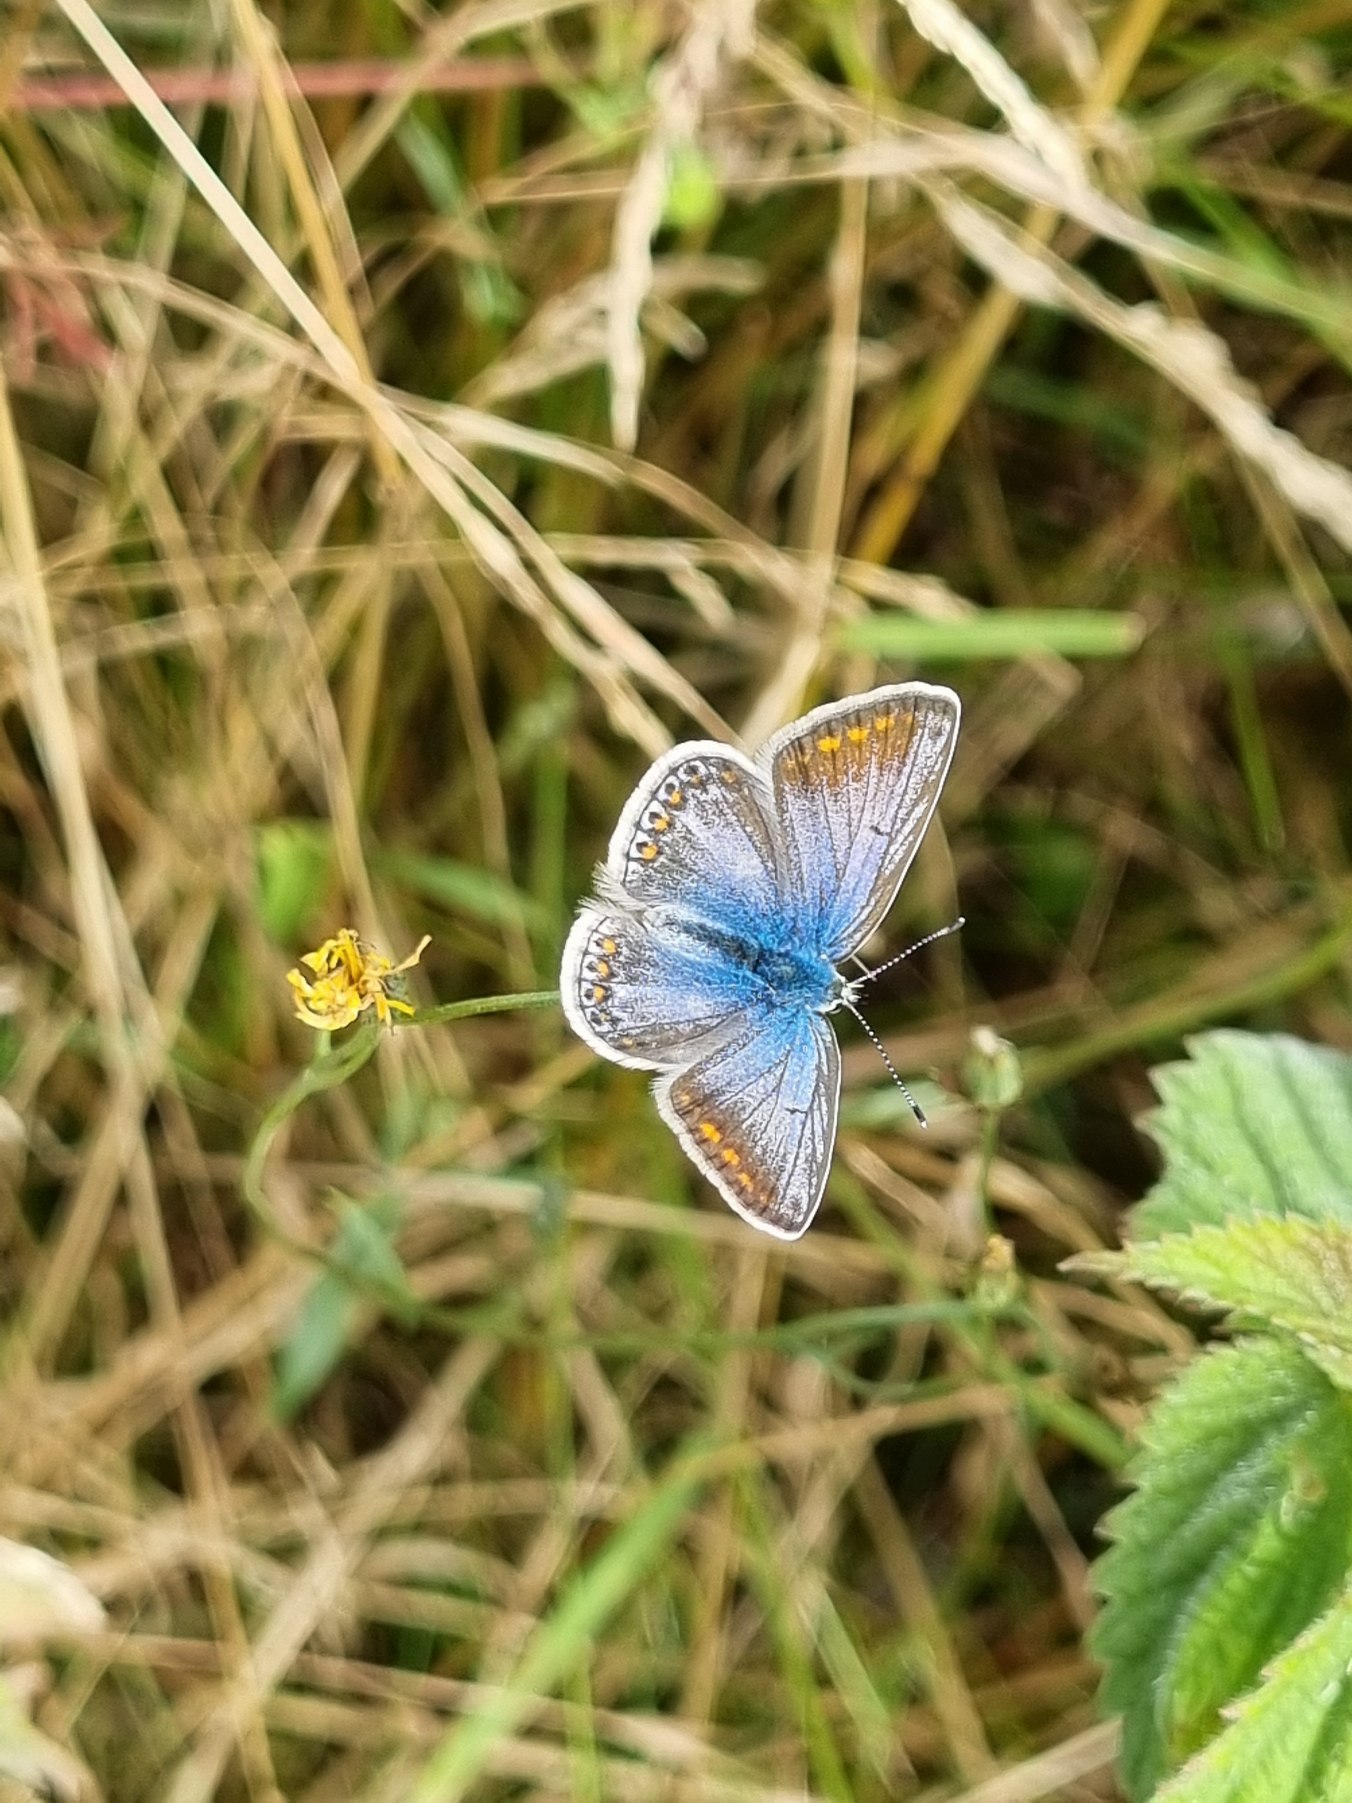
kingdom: Animalia
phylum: Arthropoda
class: Insecta
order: Lepidoptera
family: Lycaenidae
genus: Polyommatus
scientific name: Polyommatus icarus
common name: Almindelig blåfugl
